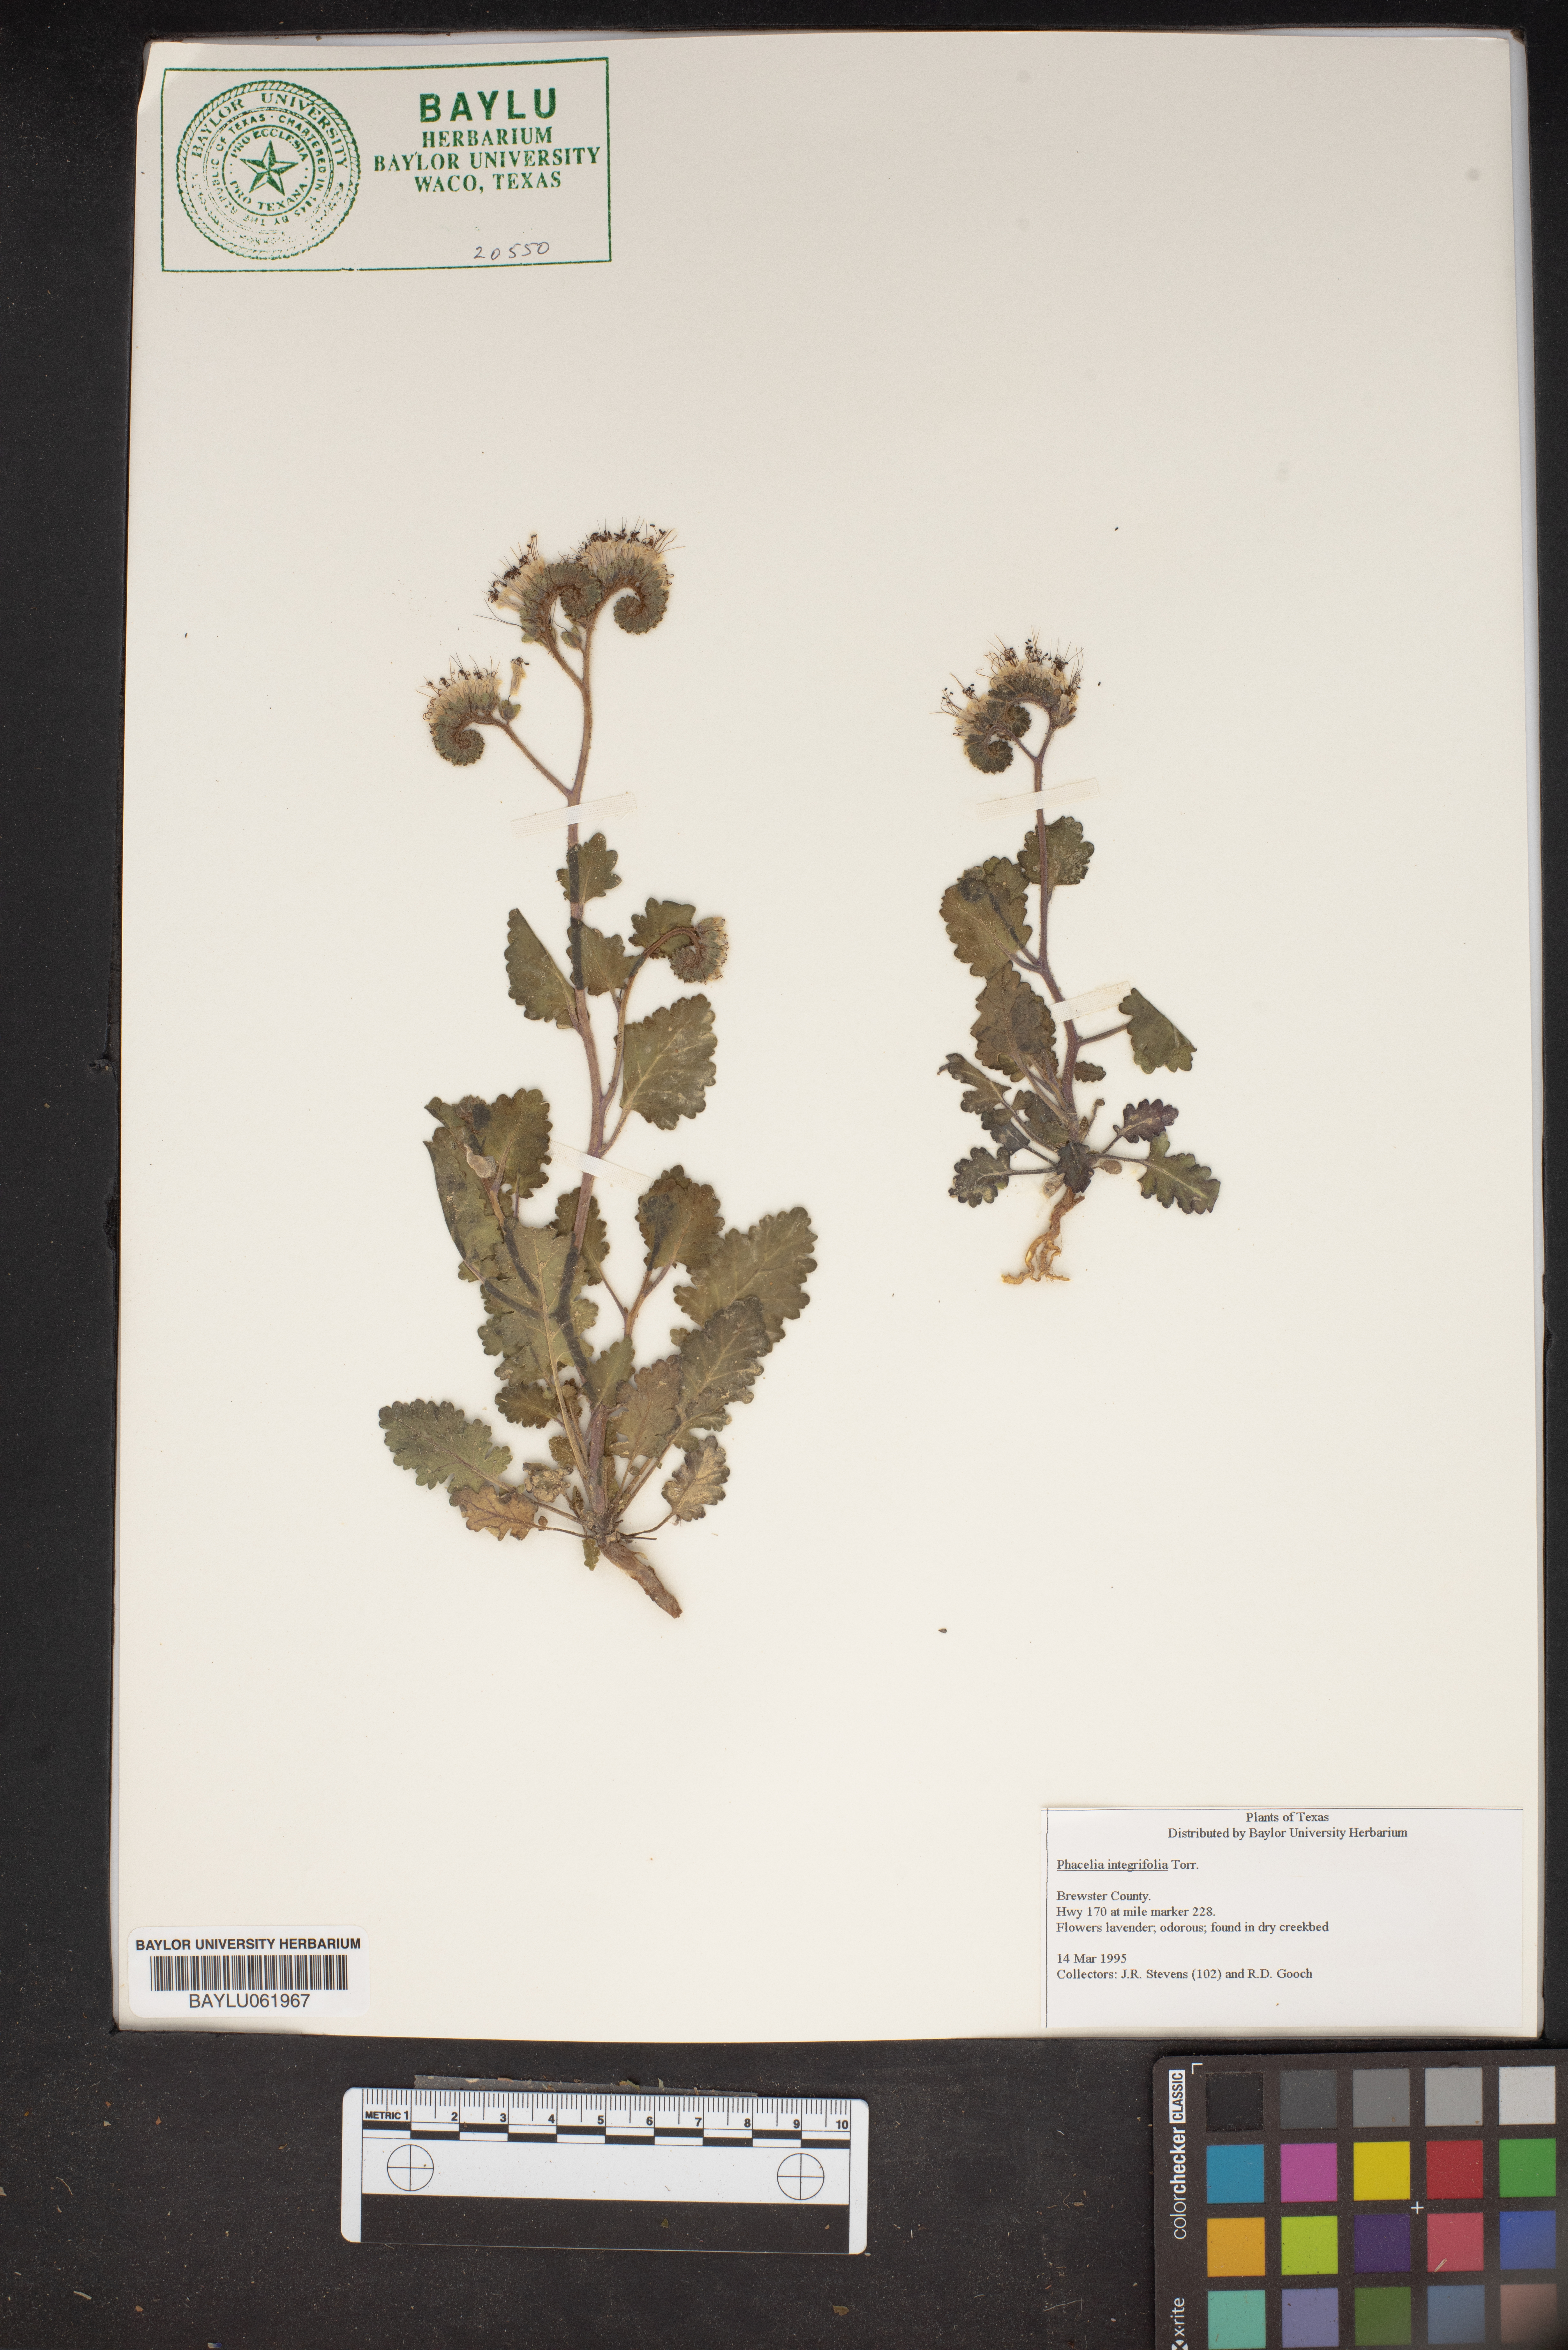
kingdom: Plantae
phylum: Tracheophyta
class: Magnoliopsida
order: Boraginales
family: Hydrophyllaceae
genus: Phacelia
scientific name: Phacelia integrifolia
